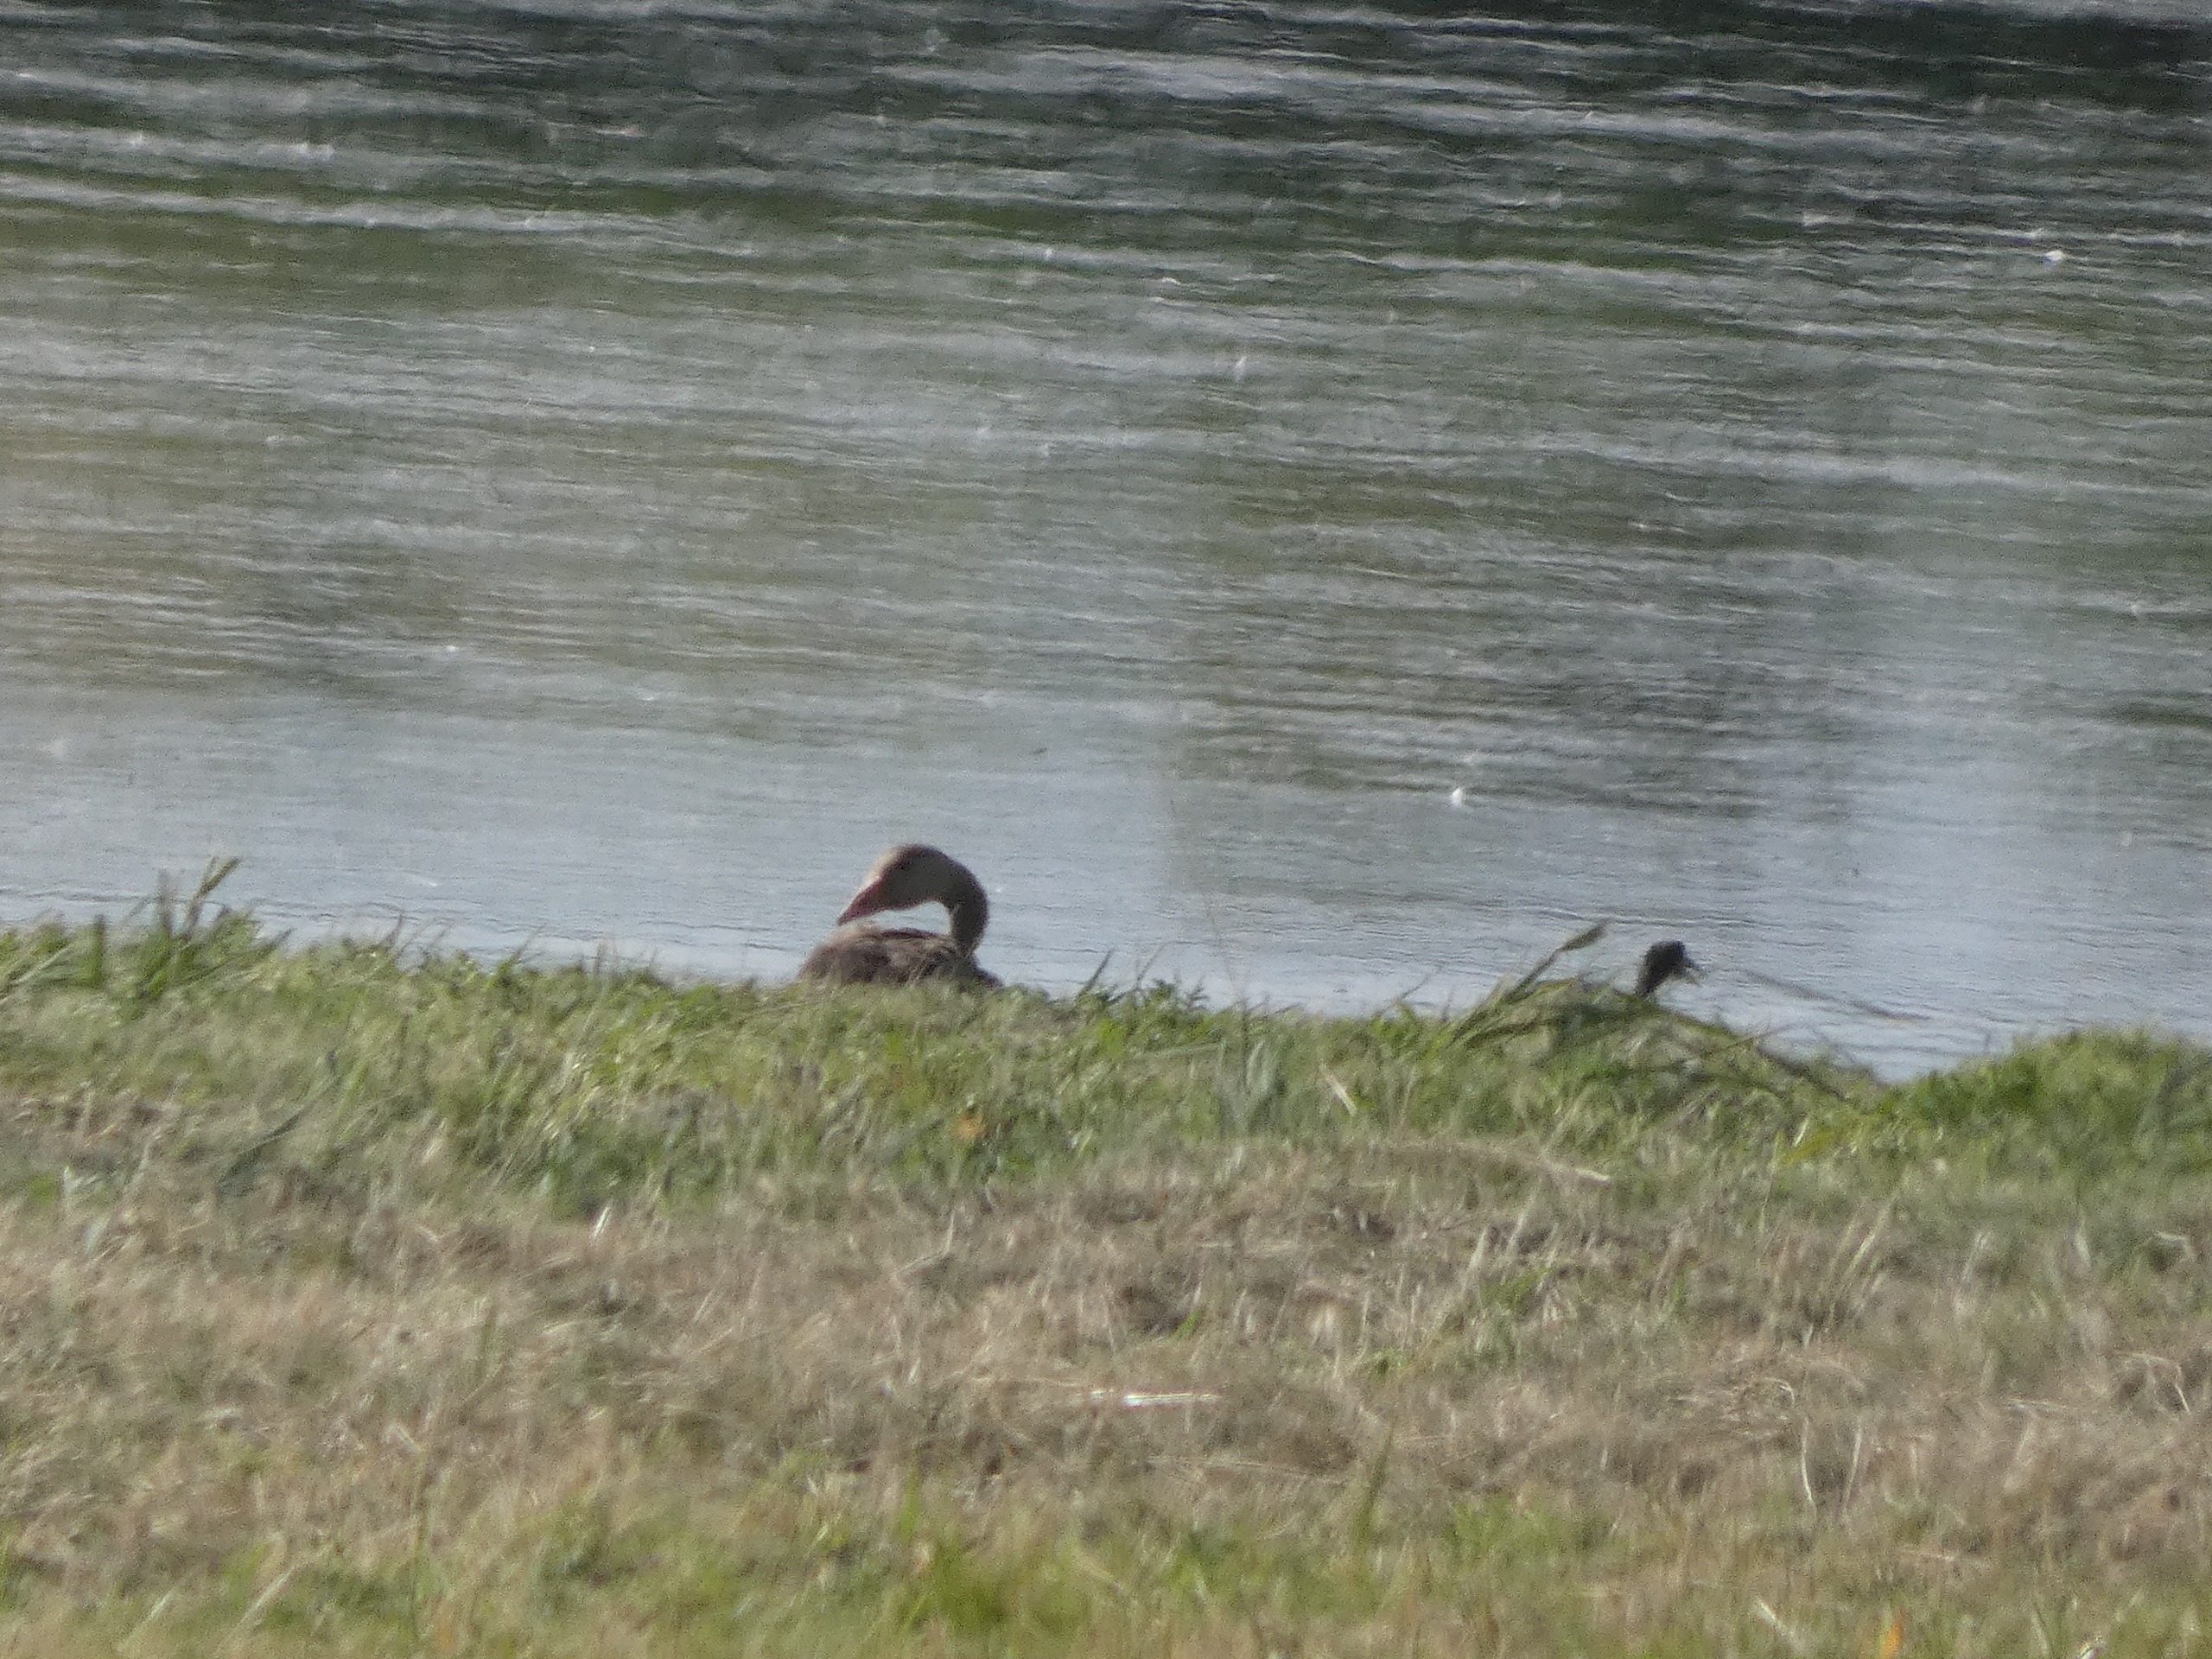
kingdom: Animalia
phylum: Chordata
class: Aves
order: Anseriformes
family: Anatidae
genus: Anser
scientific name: Anser anser
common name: Grågås
